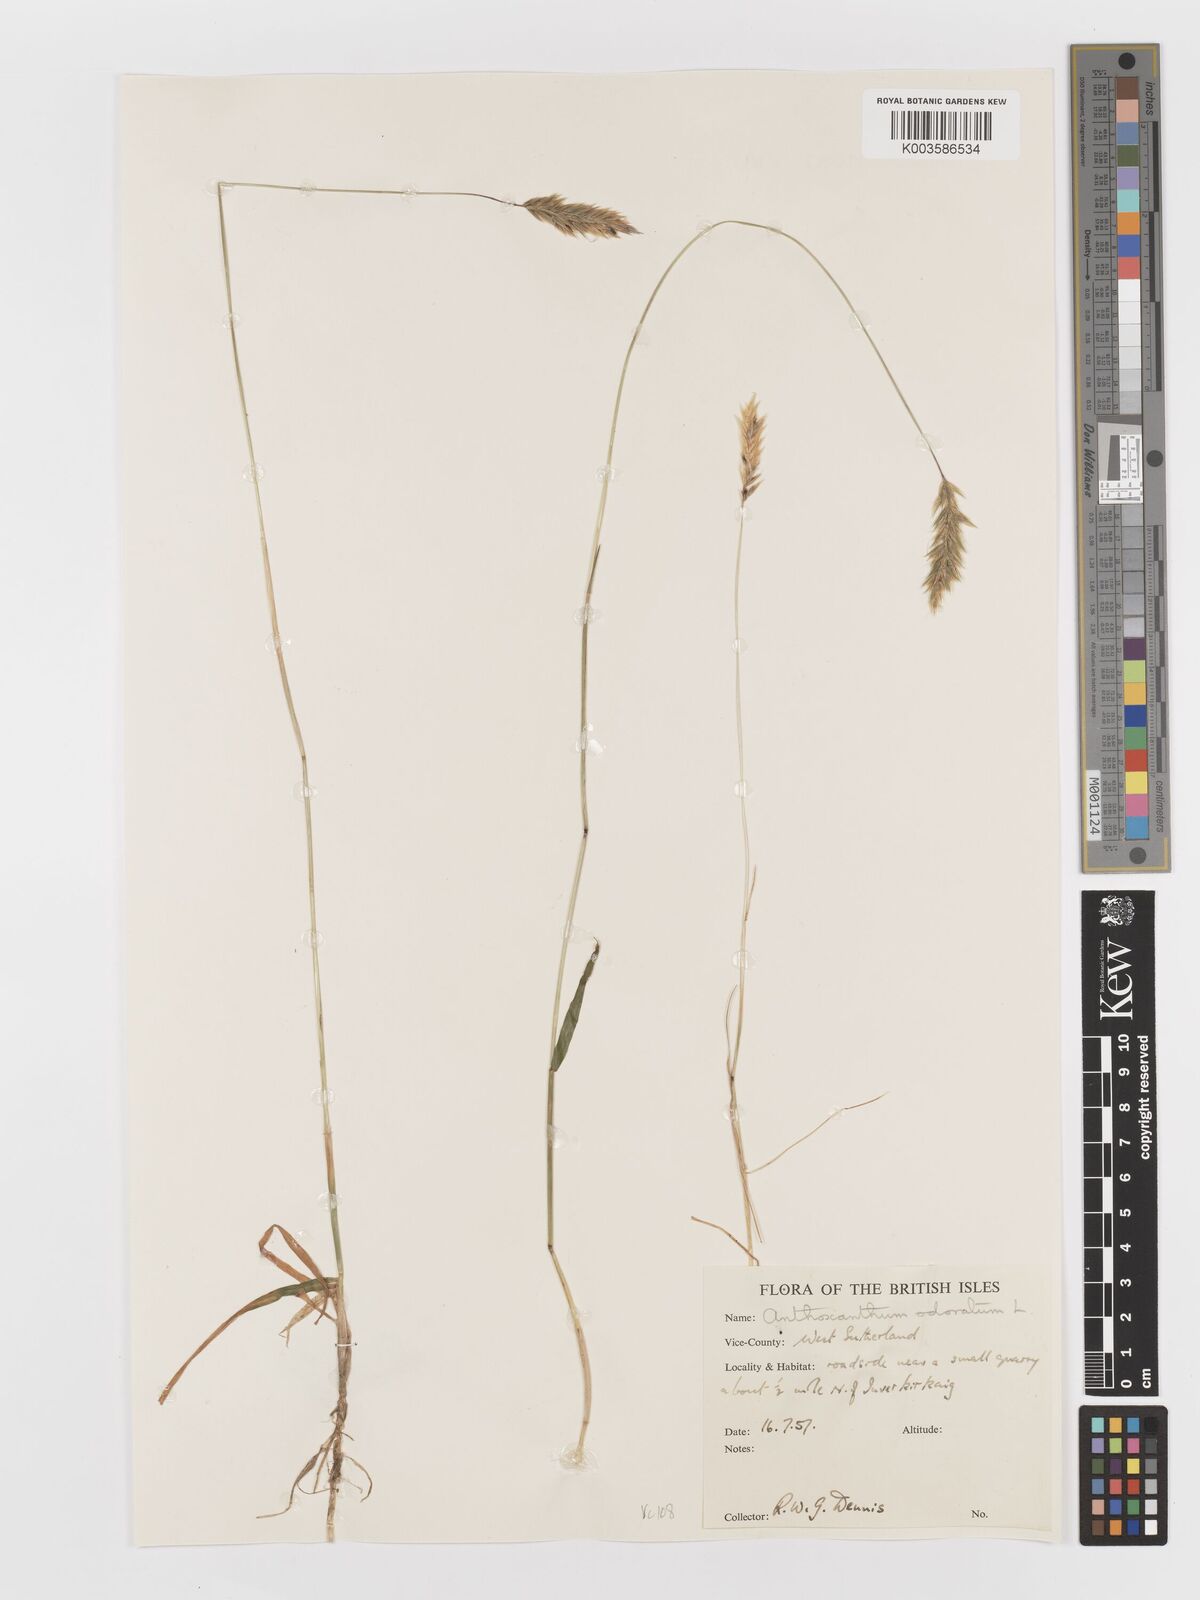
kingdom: Plantae
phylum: Tracheophyta
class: Liliopsida
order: Poales
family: Poaceae
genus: Anthoxanthum
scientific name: Anthoxanthum odoratum
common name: Sweet vernalgrass
